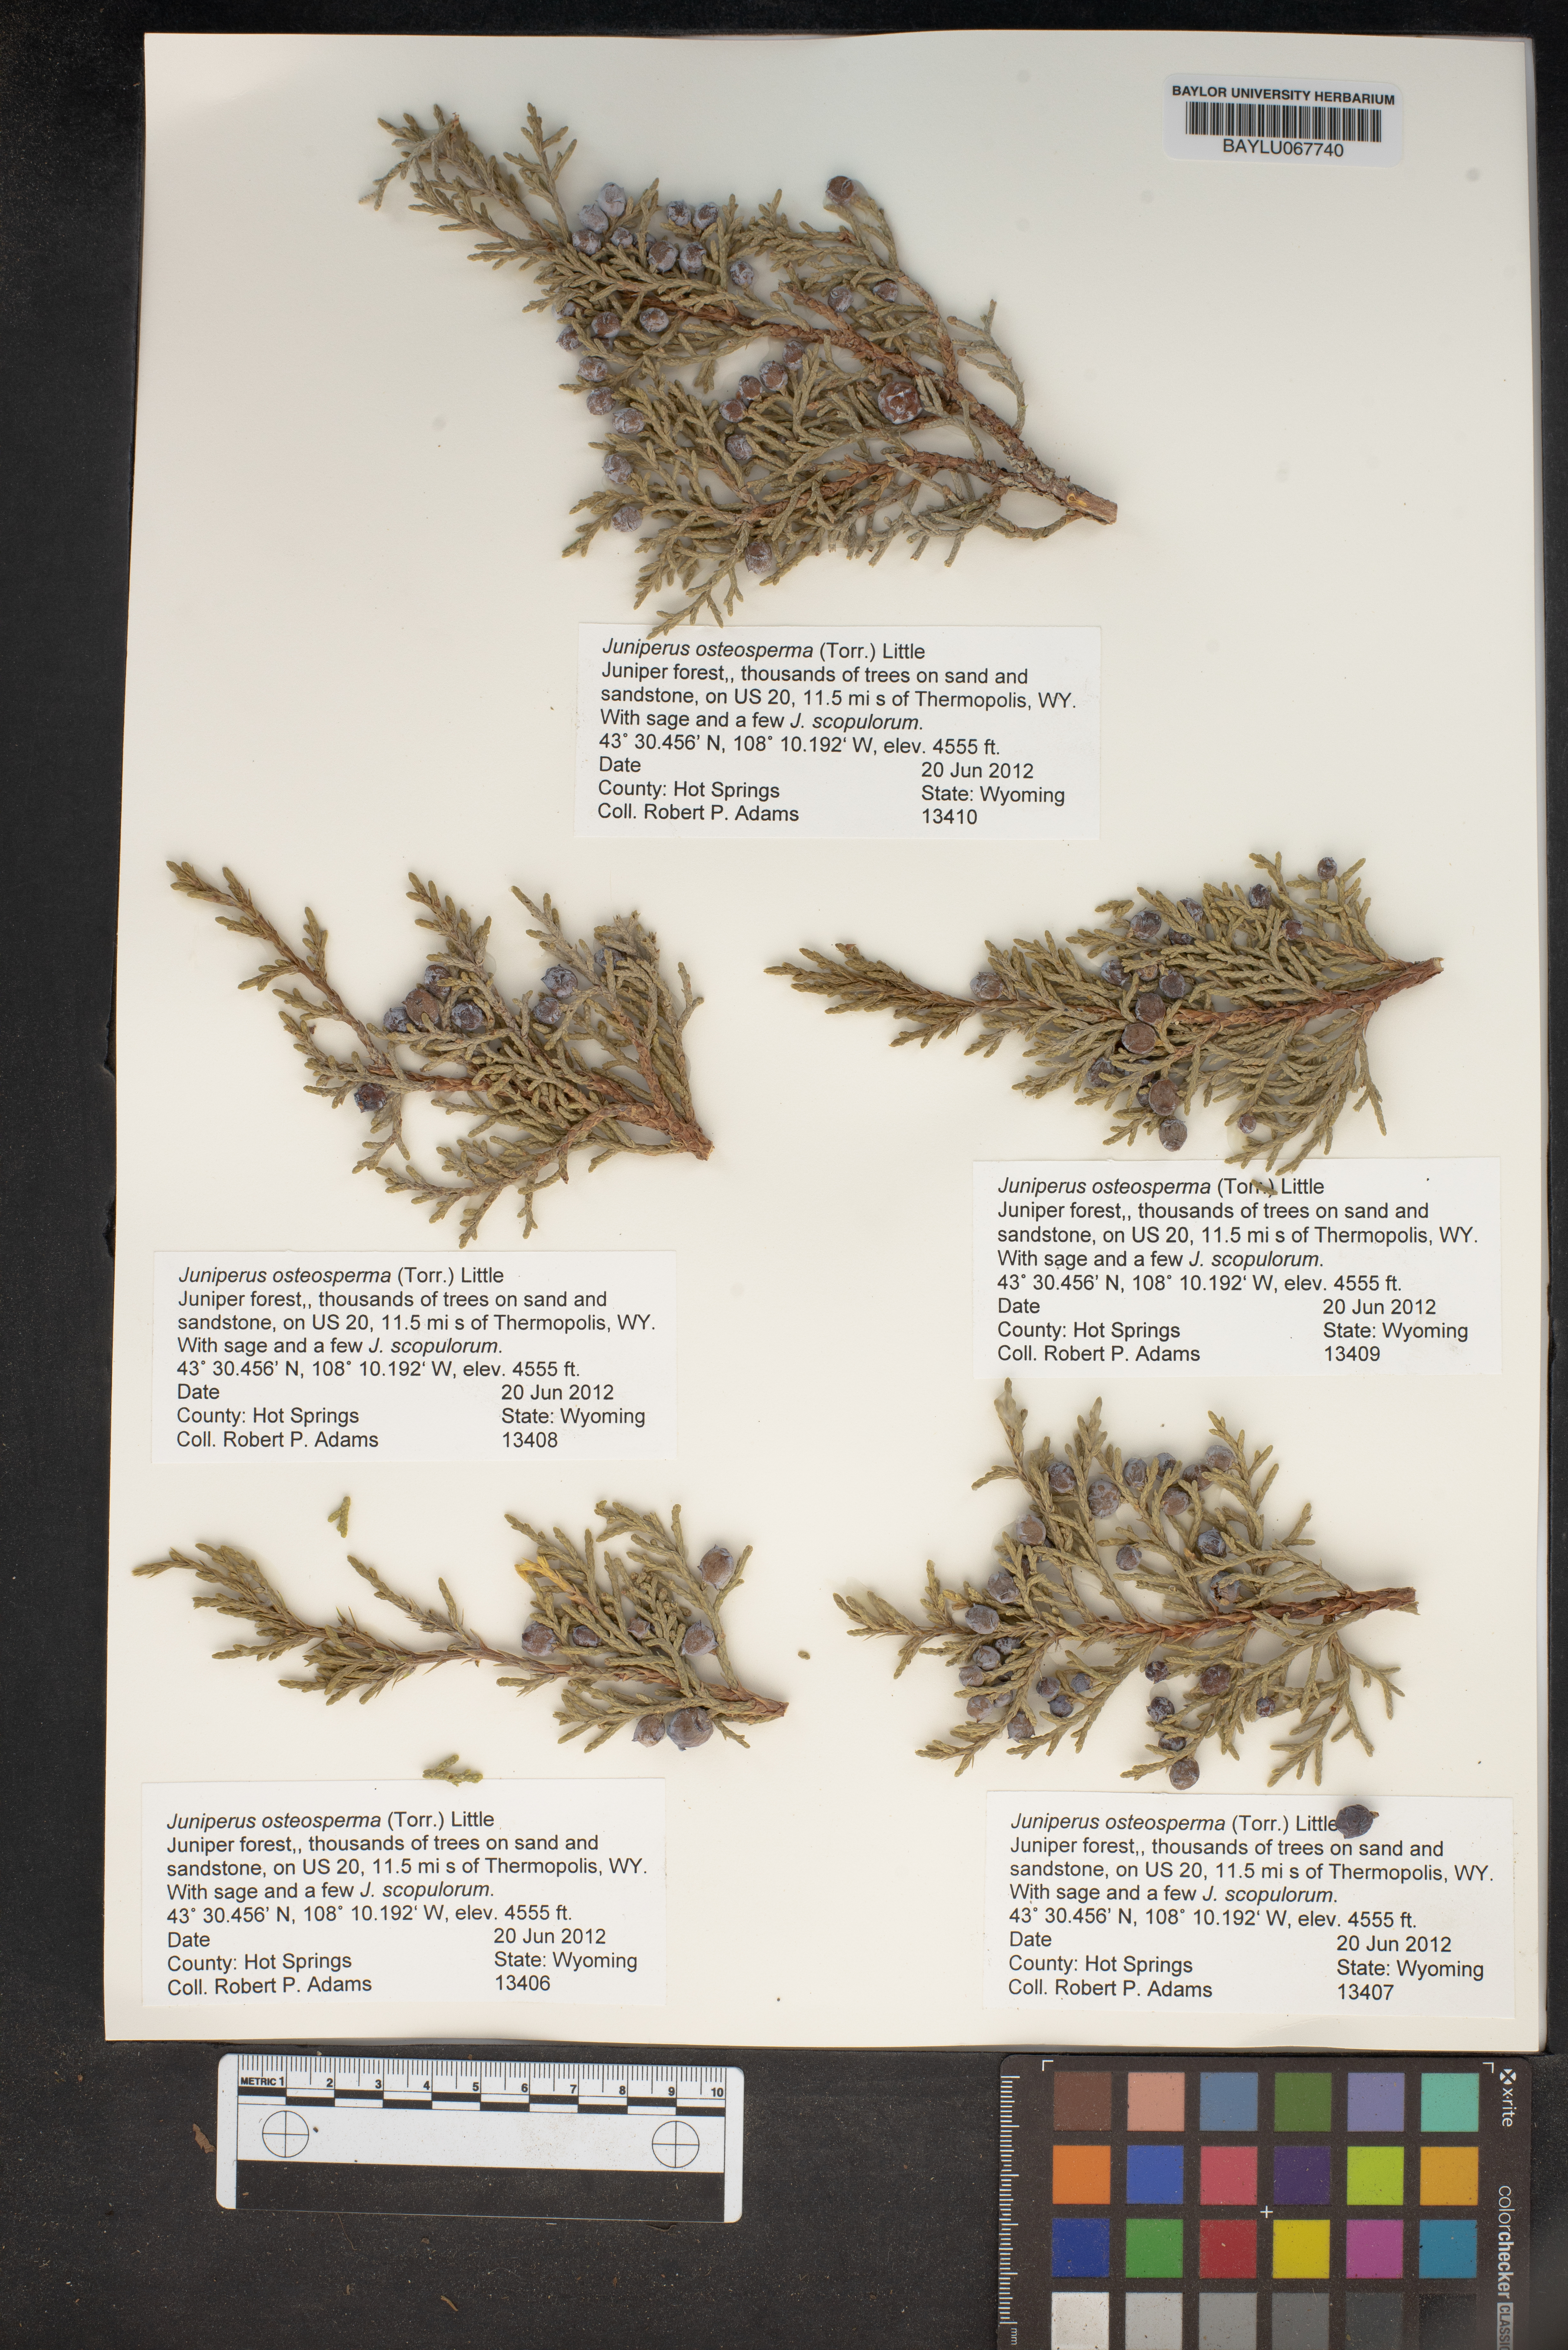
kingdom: Plantae
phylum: Tracheophyta
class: Pinopsida
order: Pinales
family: Cupressaceae
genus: Juniperus
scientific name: Juniperus osteosperma
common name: Utah juniper
